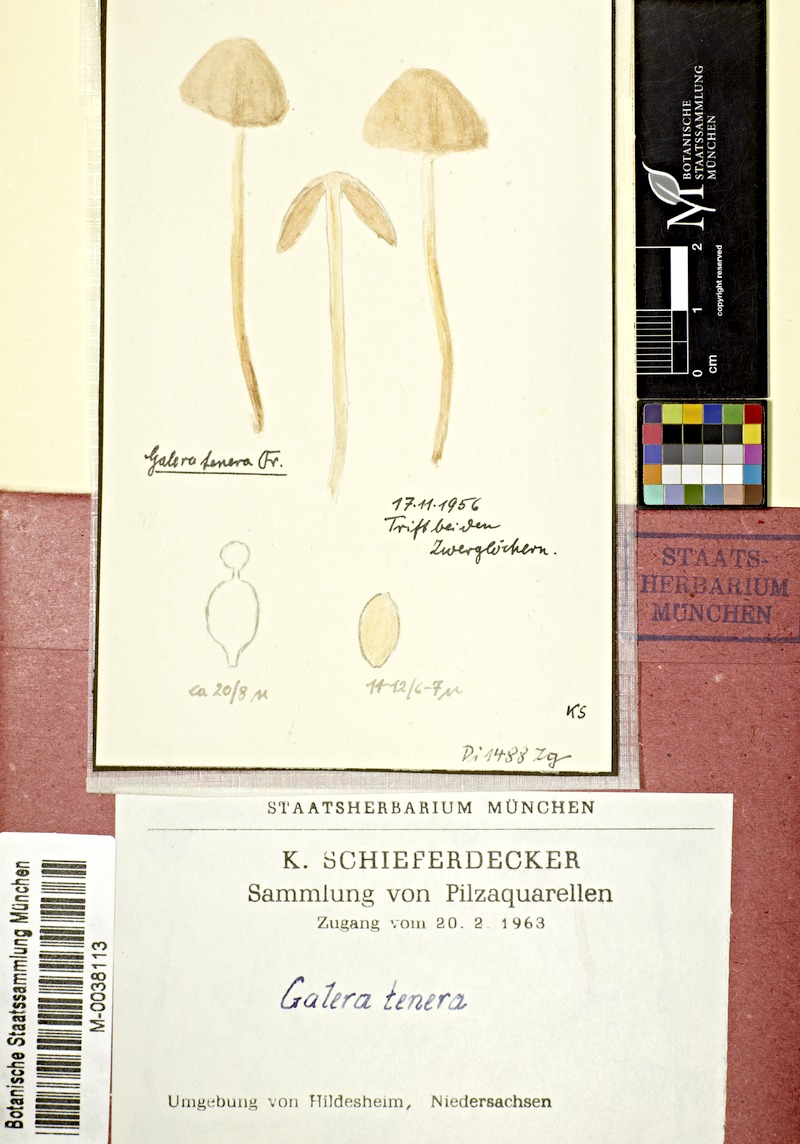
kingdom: Fungi
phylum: Basidiomycota
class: Agaricomycetes
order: Agaricales
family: Bolbitiaceae
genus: Conocybe
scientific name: Conocybe tenera
